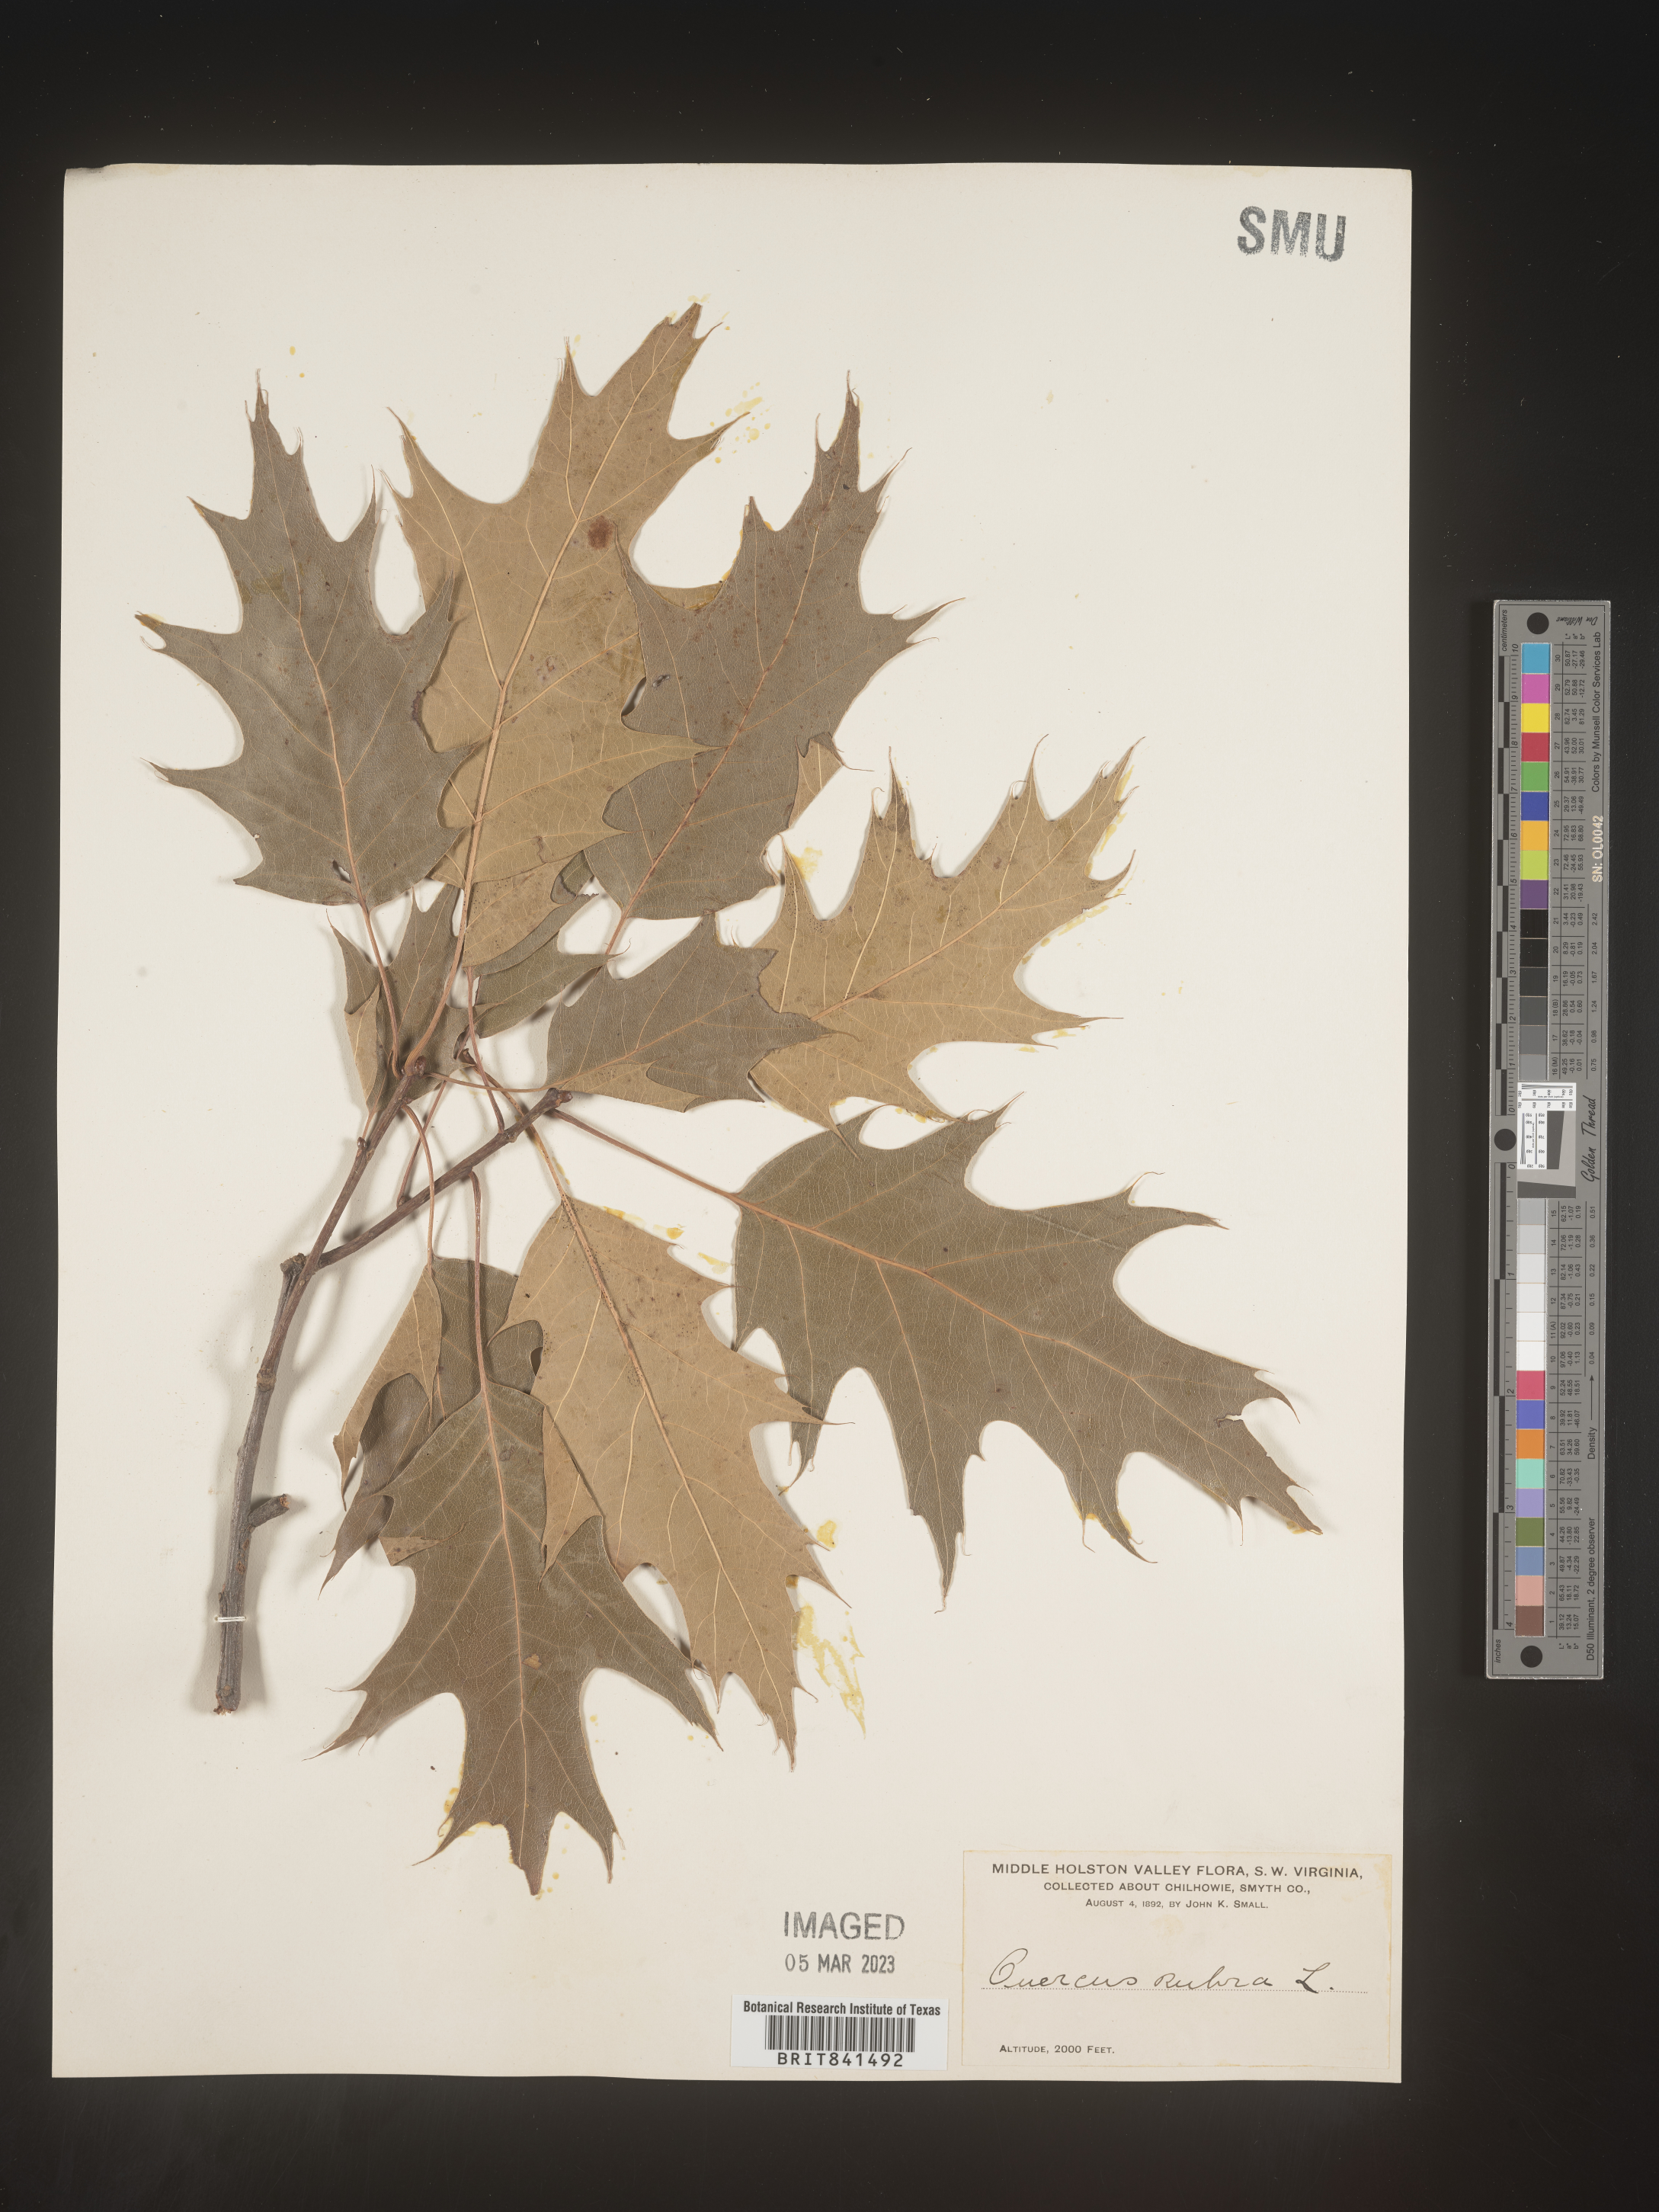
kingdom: Plantae
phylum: Tracheophyta
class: Magnoliopsida
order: Fagales
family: Fagaceae
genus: Quercus
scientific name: Quercus rubra
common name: Red oak
